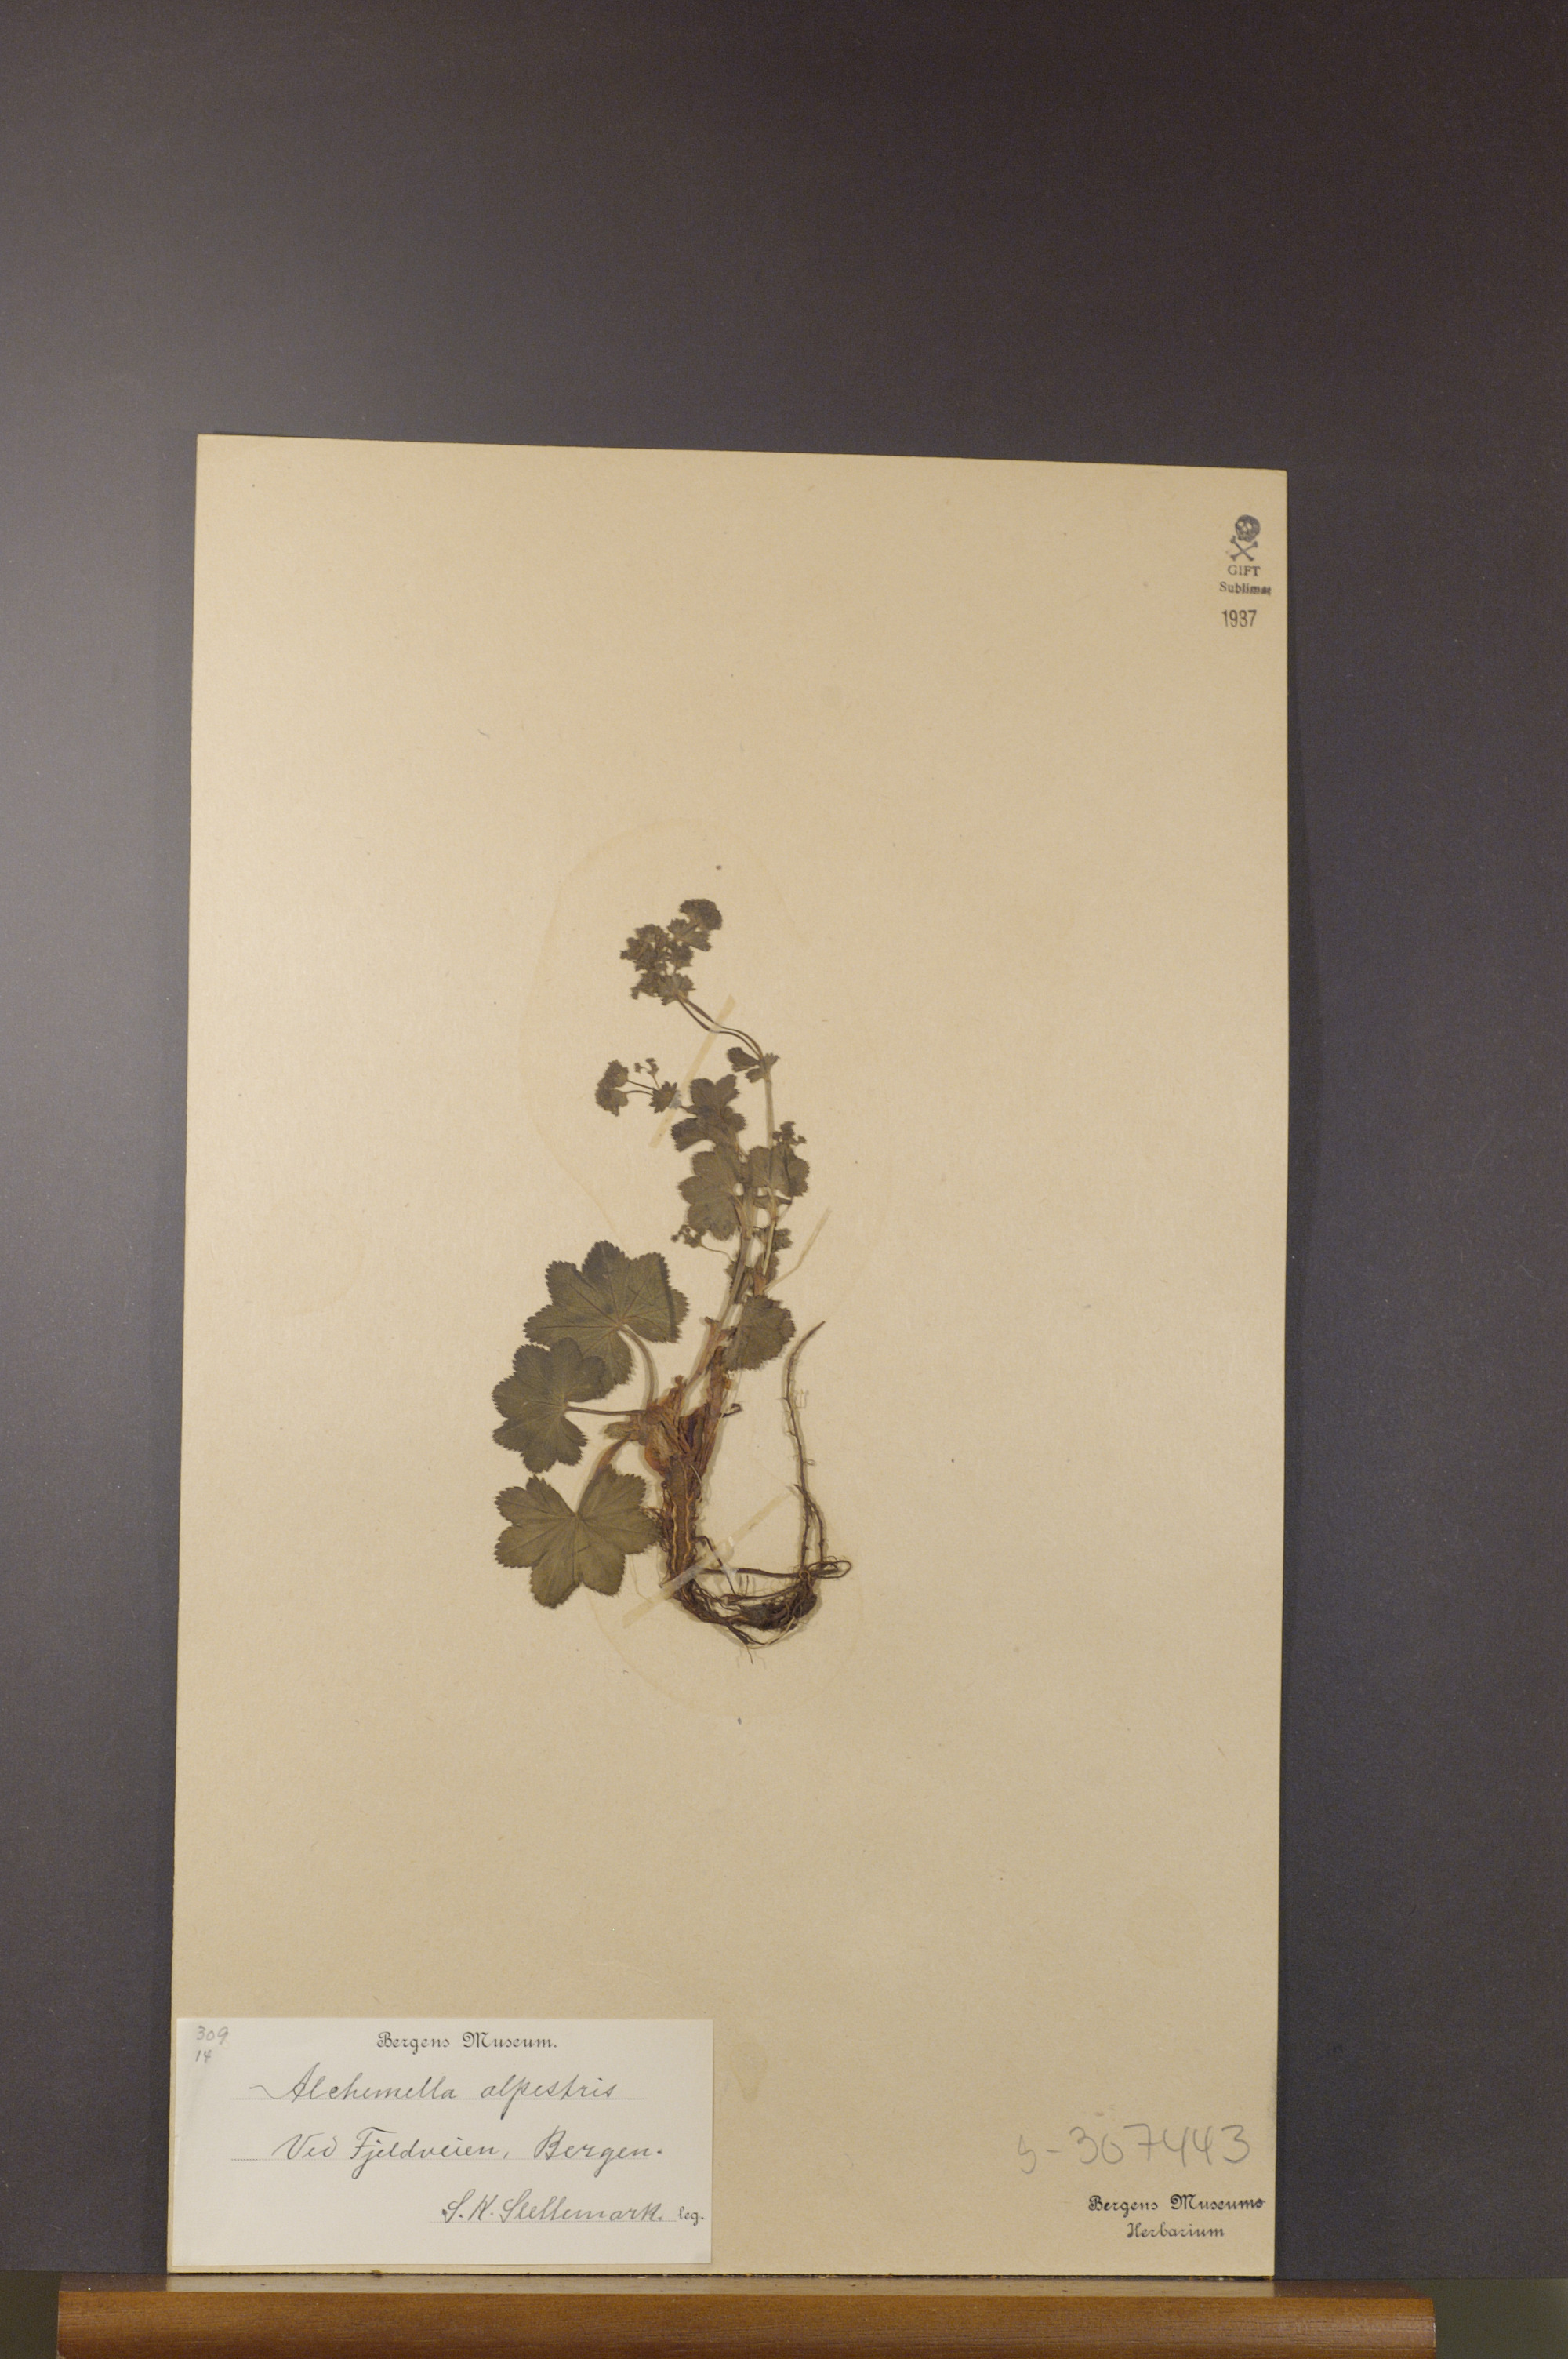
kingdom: Plantae
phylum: Tracheophyta
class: Magnoliopsida
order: Rosales
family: Rosaceae
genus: Alchemilla
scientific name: Alchemilla glabra
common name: Smooth lady's-mantle
